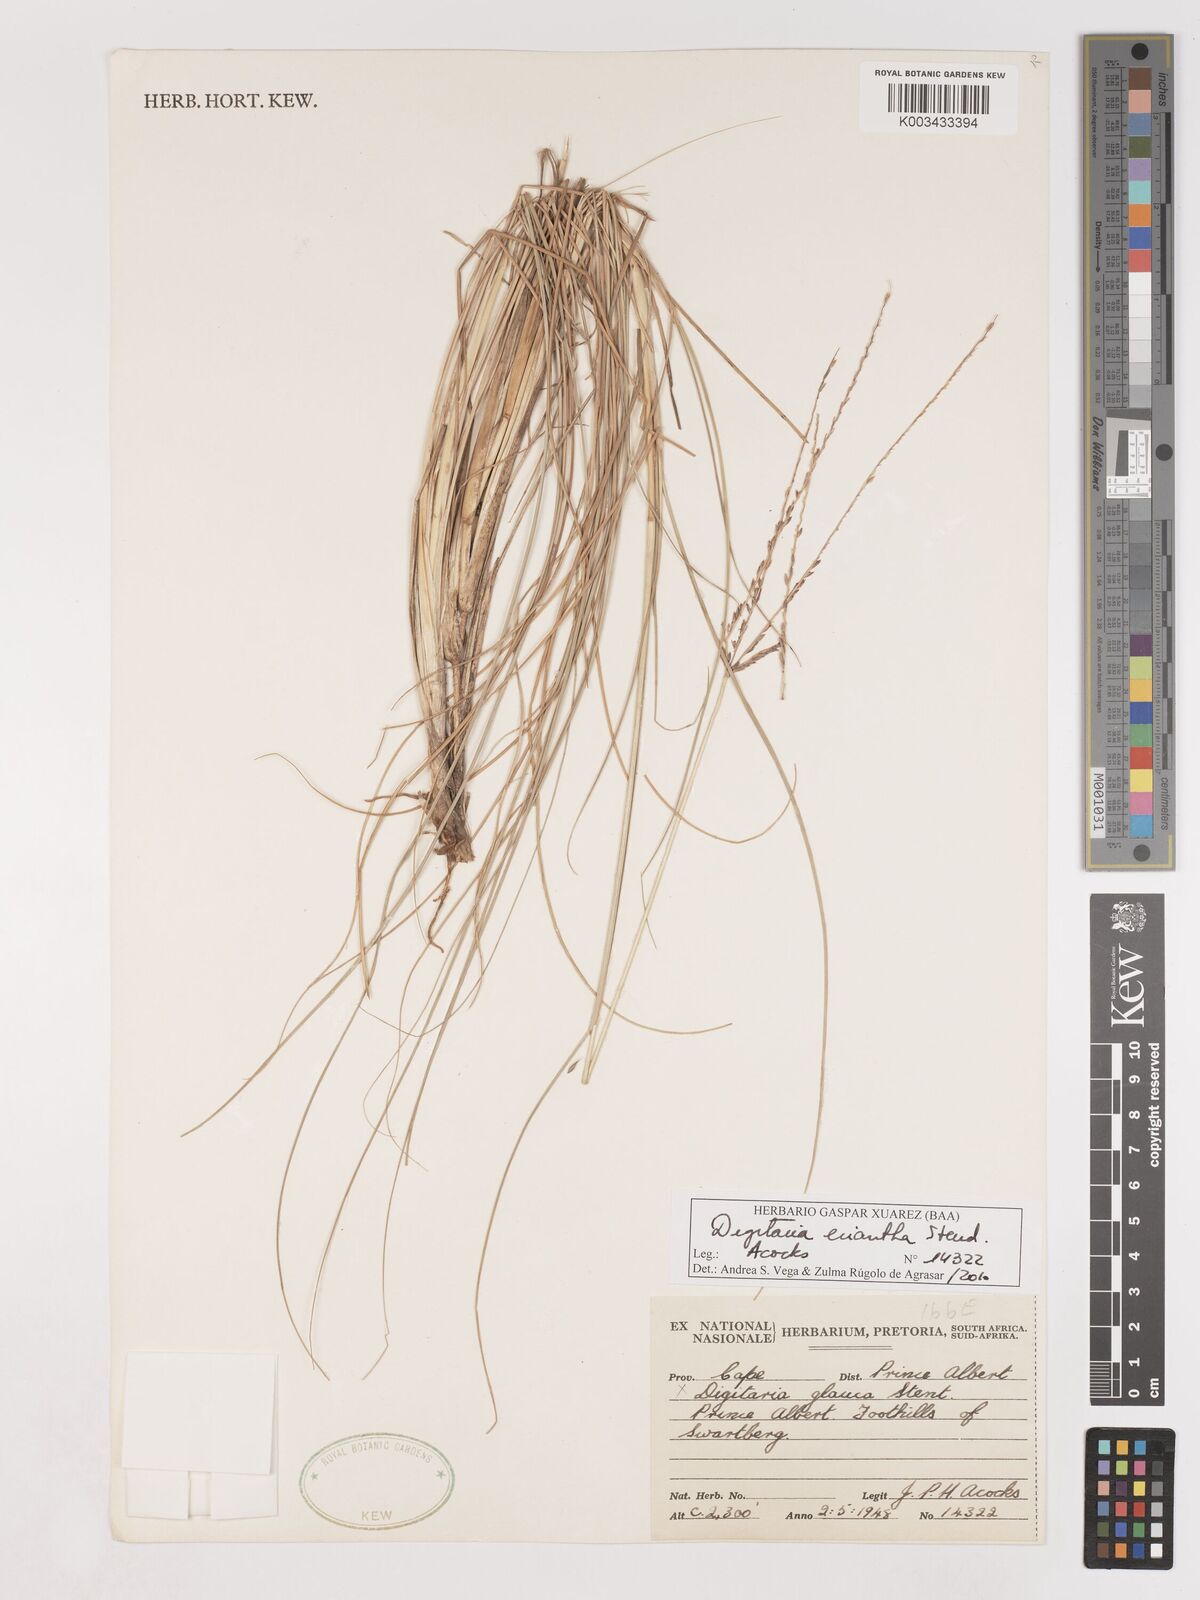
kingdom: Plantae
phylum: Tracheophyta
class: Liliopsida
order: Poales
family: Poaceae
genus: Digitaria
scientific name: Digitaria eriantha
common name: Digitgrass
